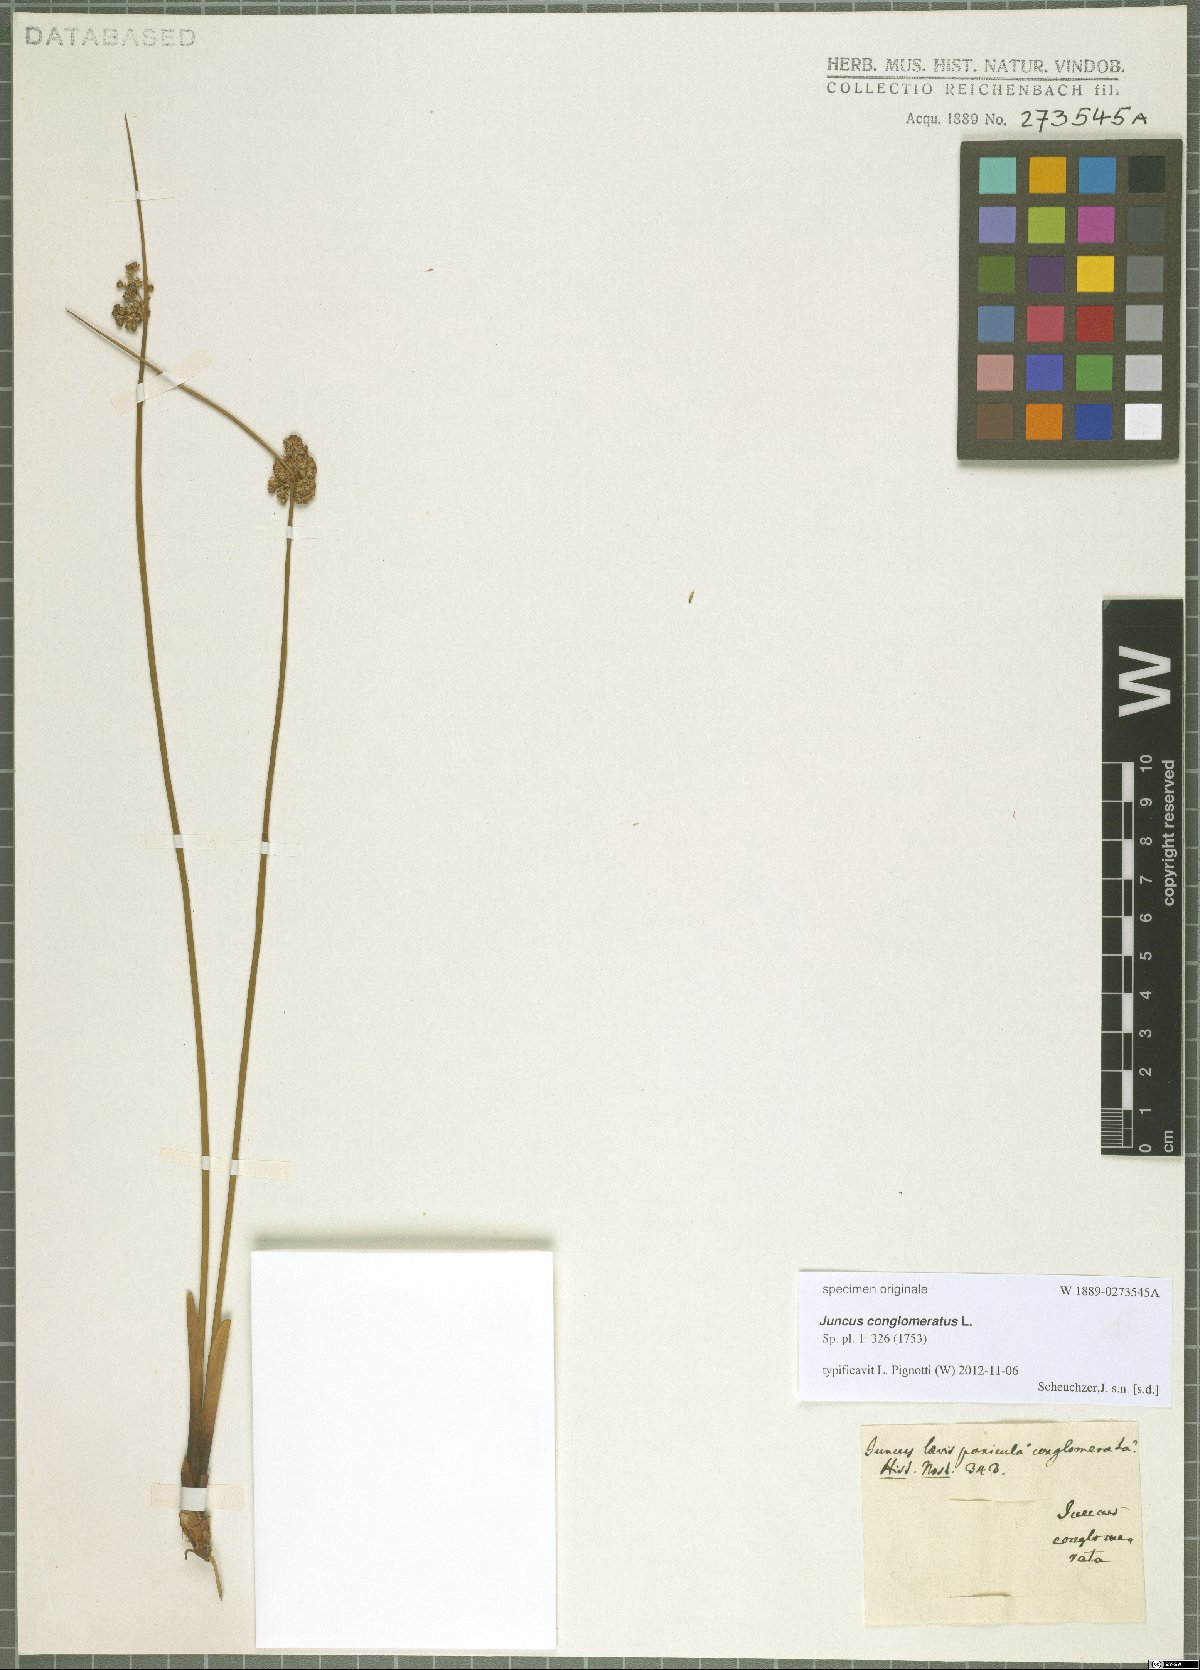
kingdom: Plantae
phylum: Tracheophyta
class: Liliopsida
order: Poales
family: Juncaceae
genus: Juncus
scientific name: Juncus conglomeratus
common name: Compact rush
